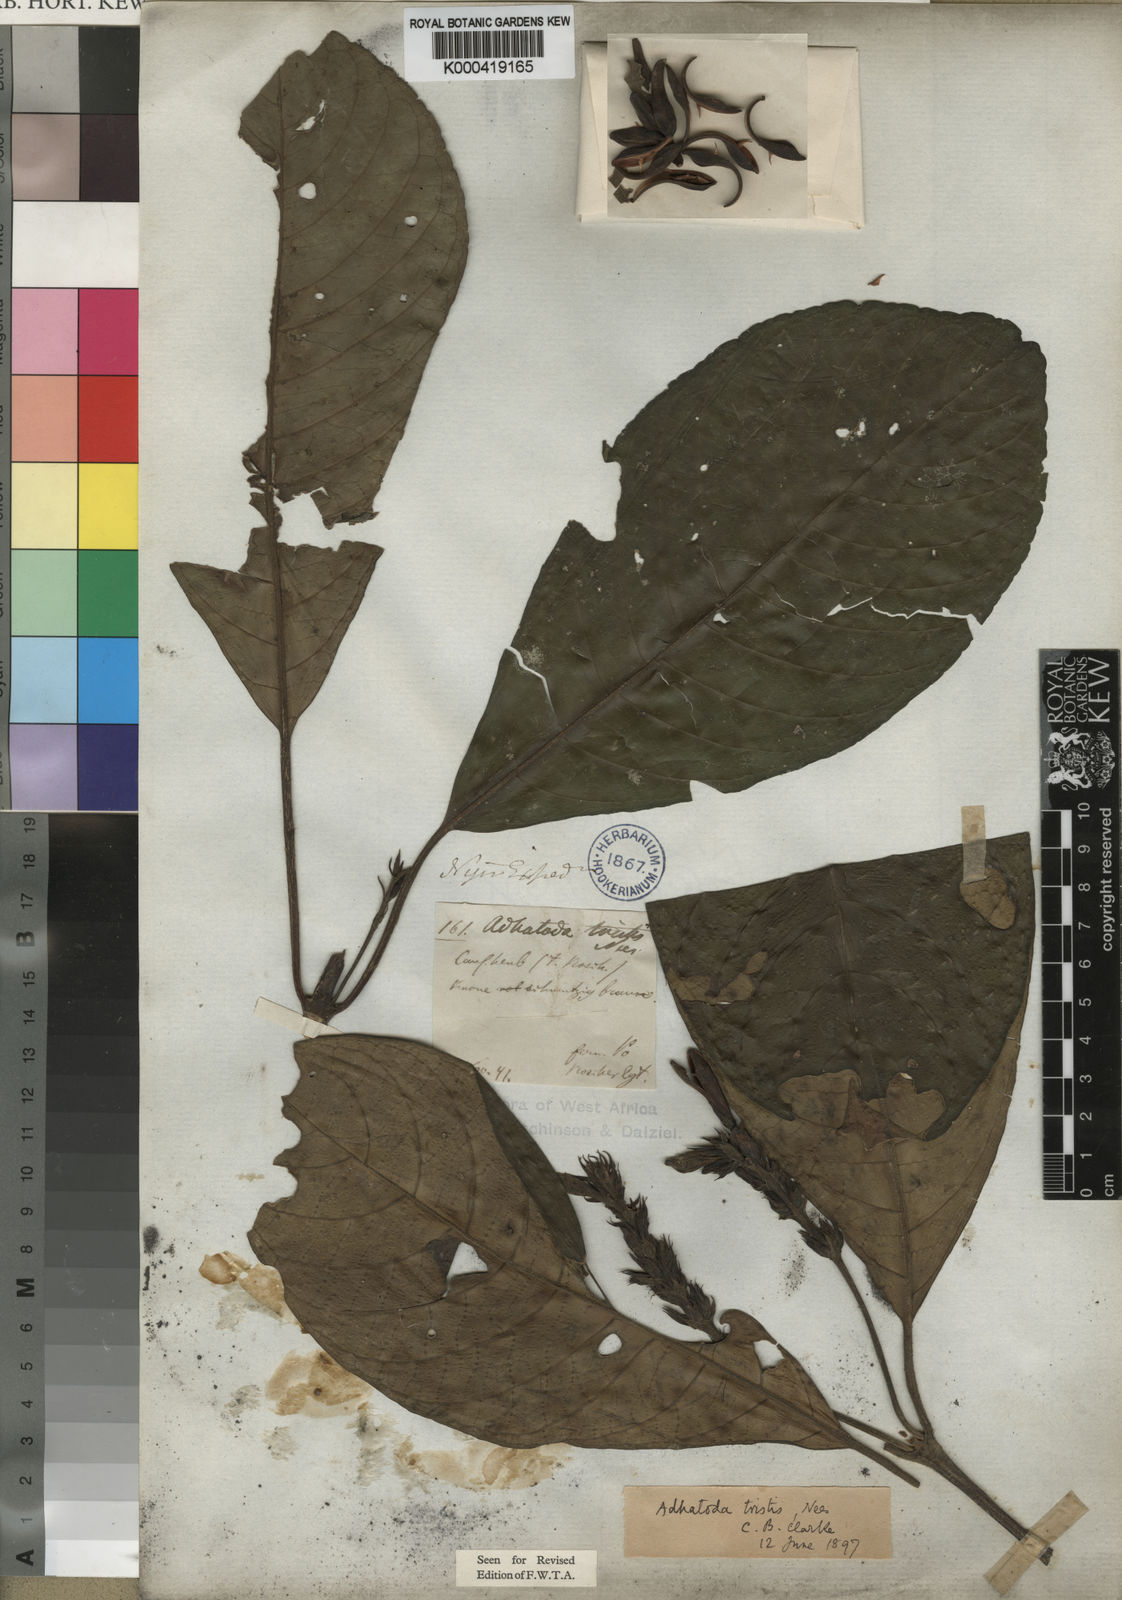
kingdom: Plantae
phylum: Tracheophyta
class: Magnoliopsida
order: Lamiales
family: Acanthaceae
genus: Justicia
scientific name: Justicia tristis
